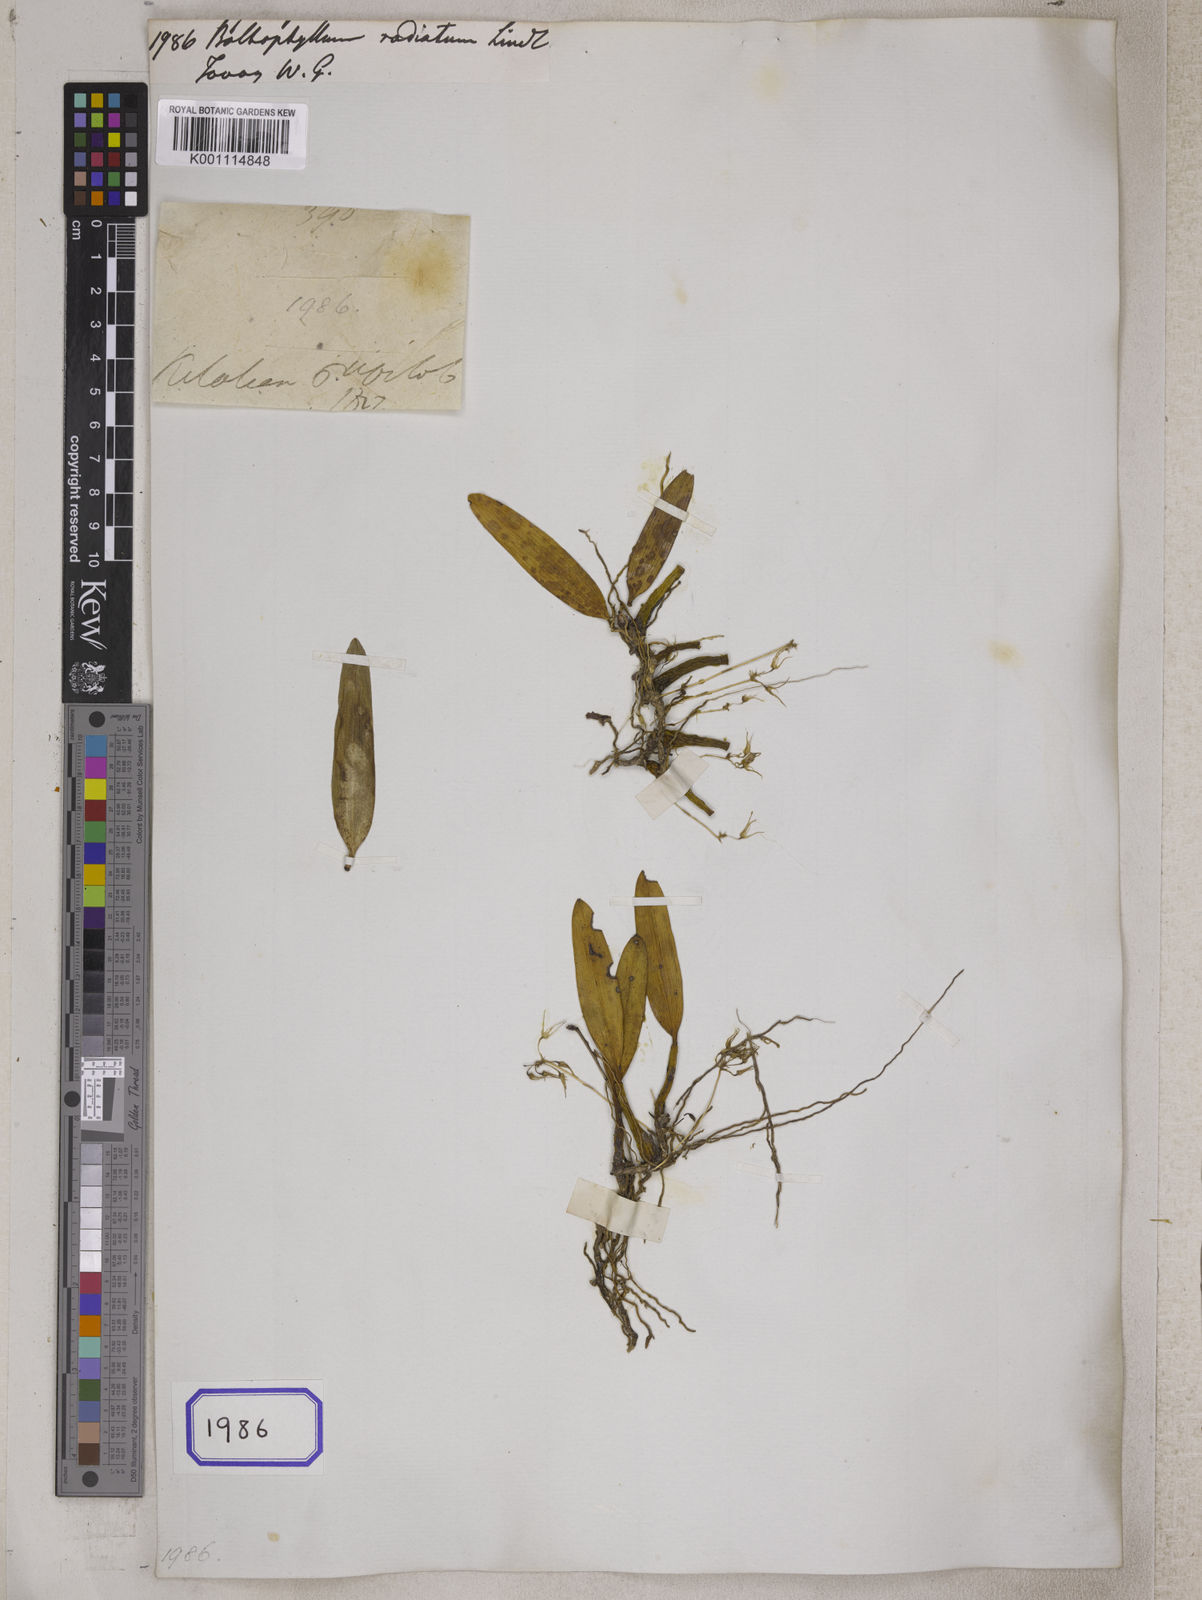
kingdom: Plantae
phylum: Tracheophyta
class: Liliopsida
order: Asparagales
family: Orchidaceae
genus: Bulbophyllum
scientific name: Bulbophyllum laxiflorum
